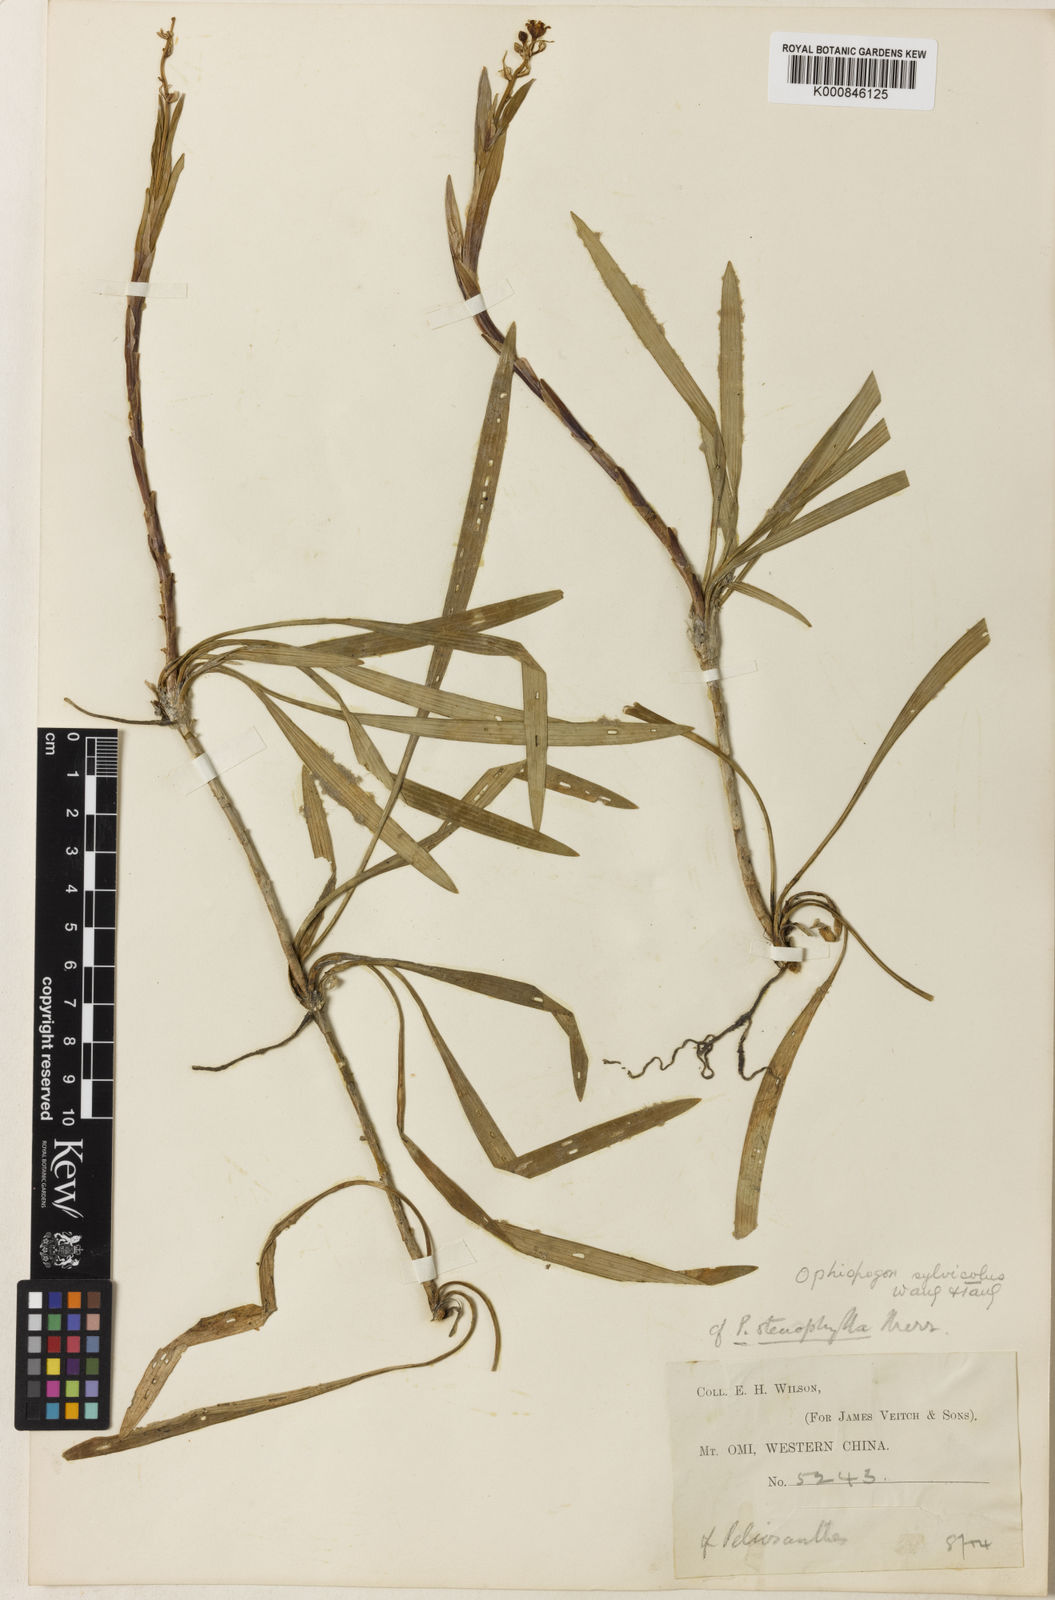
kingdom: Plantae
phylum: Tracheophyta
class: Liliopsida
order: Asparagales
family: Asparagaceae
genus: Ophiopogon
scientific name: Ophiopogon sylvicola
